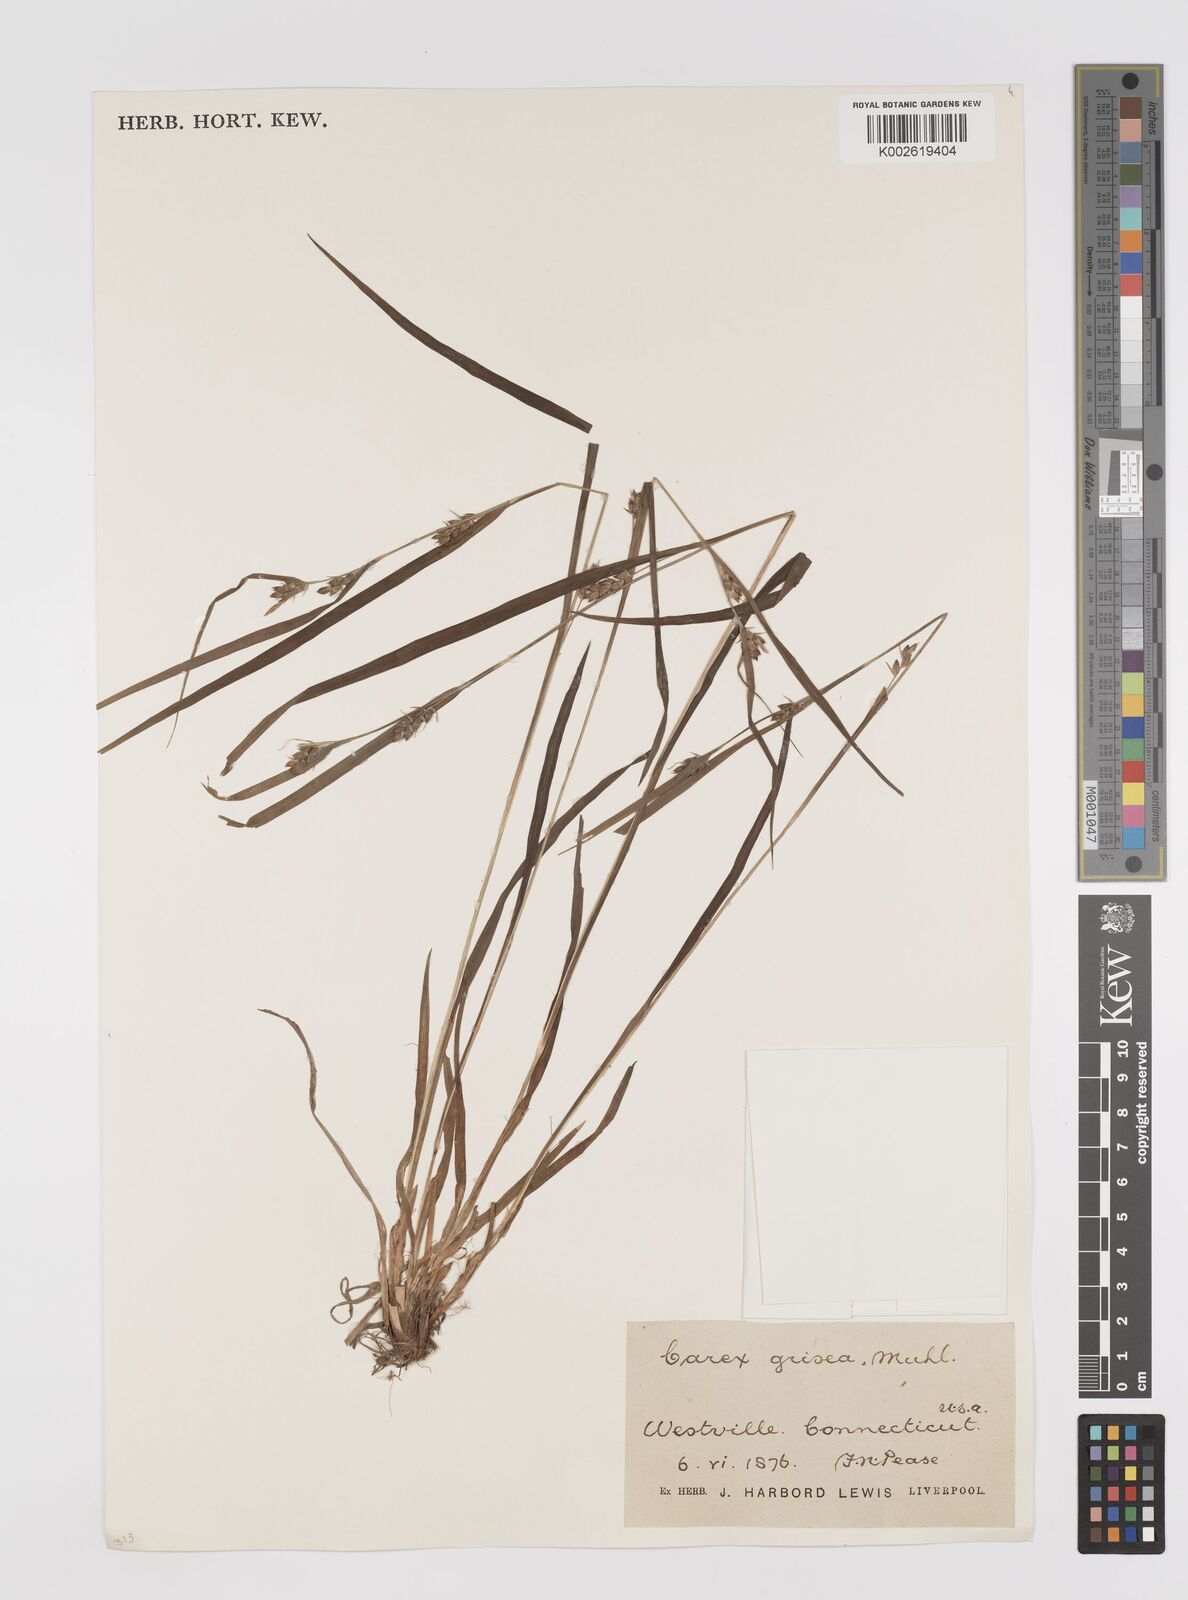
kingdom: Plantae
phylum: Tracheophyta
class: Liliopsida
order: Poales
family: Cyperaceae
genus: Carex
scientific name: Carex grisea
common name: Eastern narrow-leaved sedge
